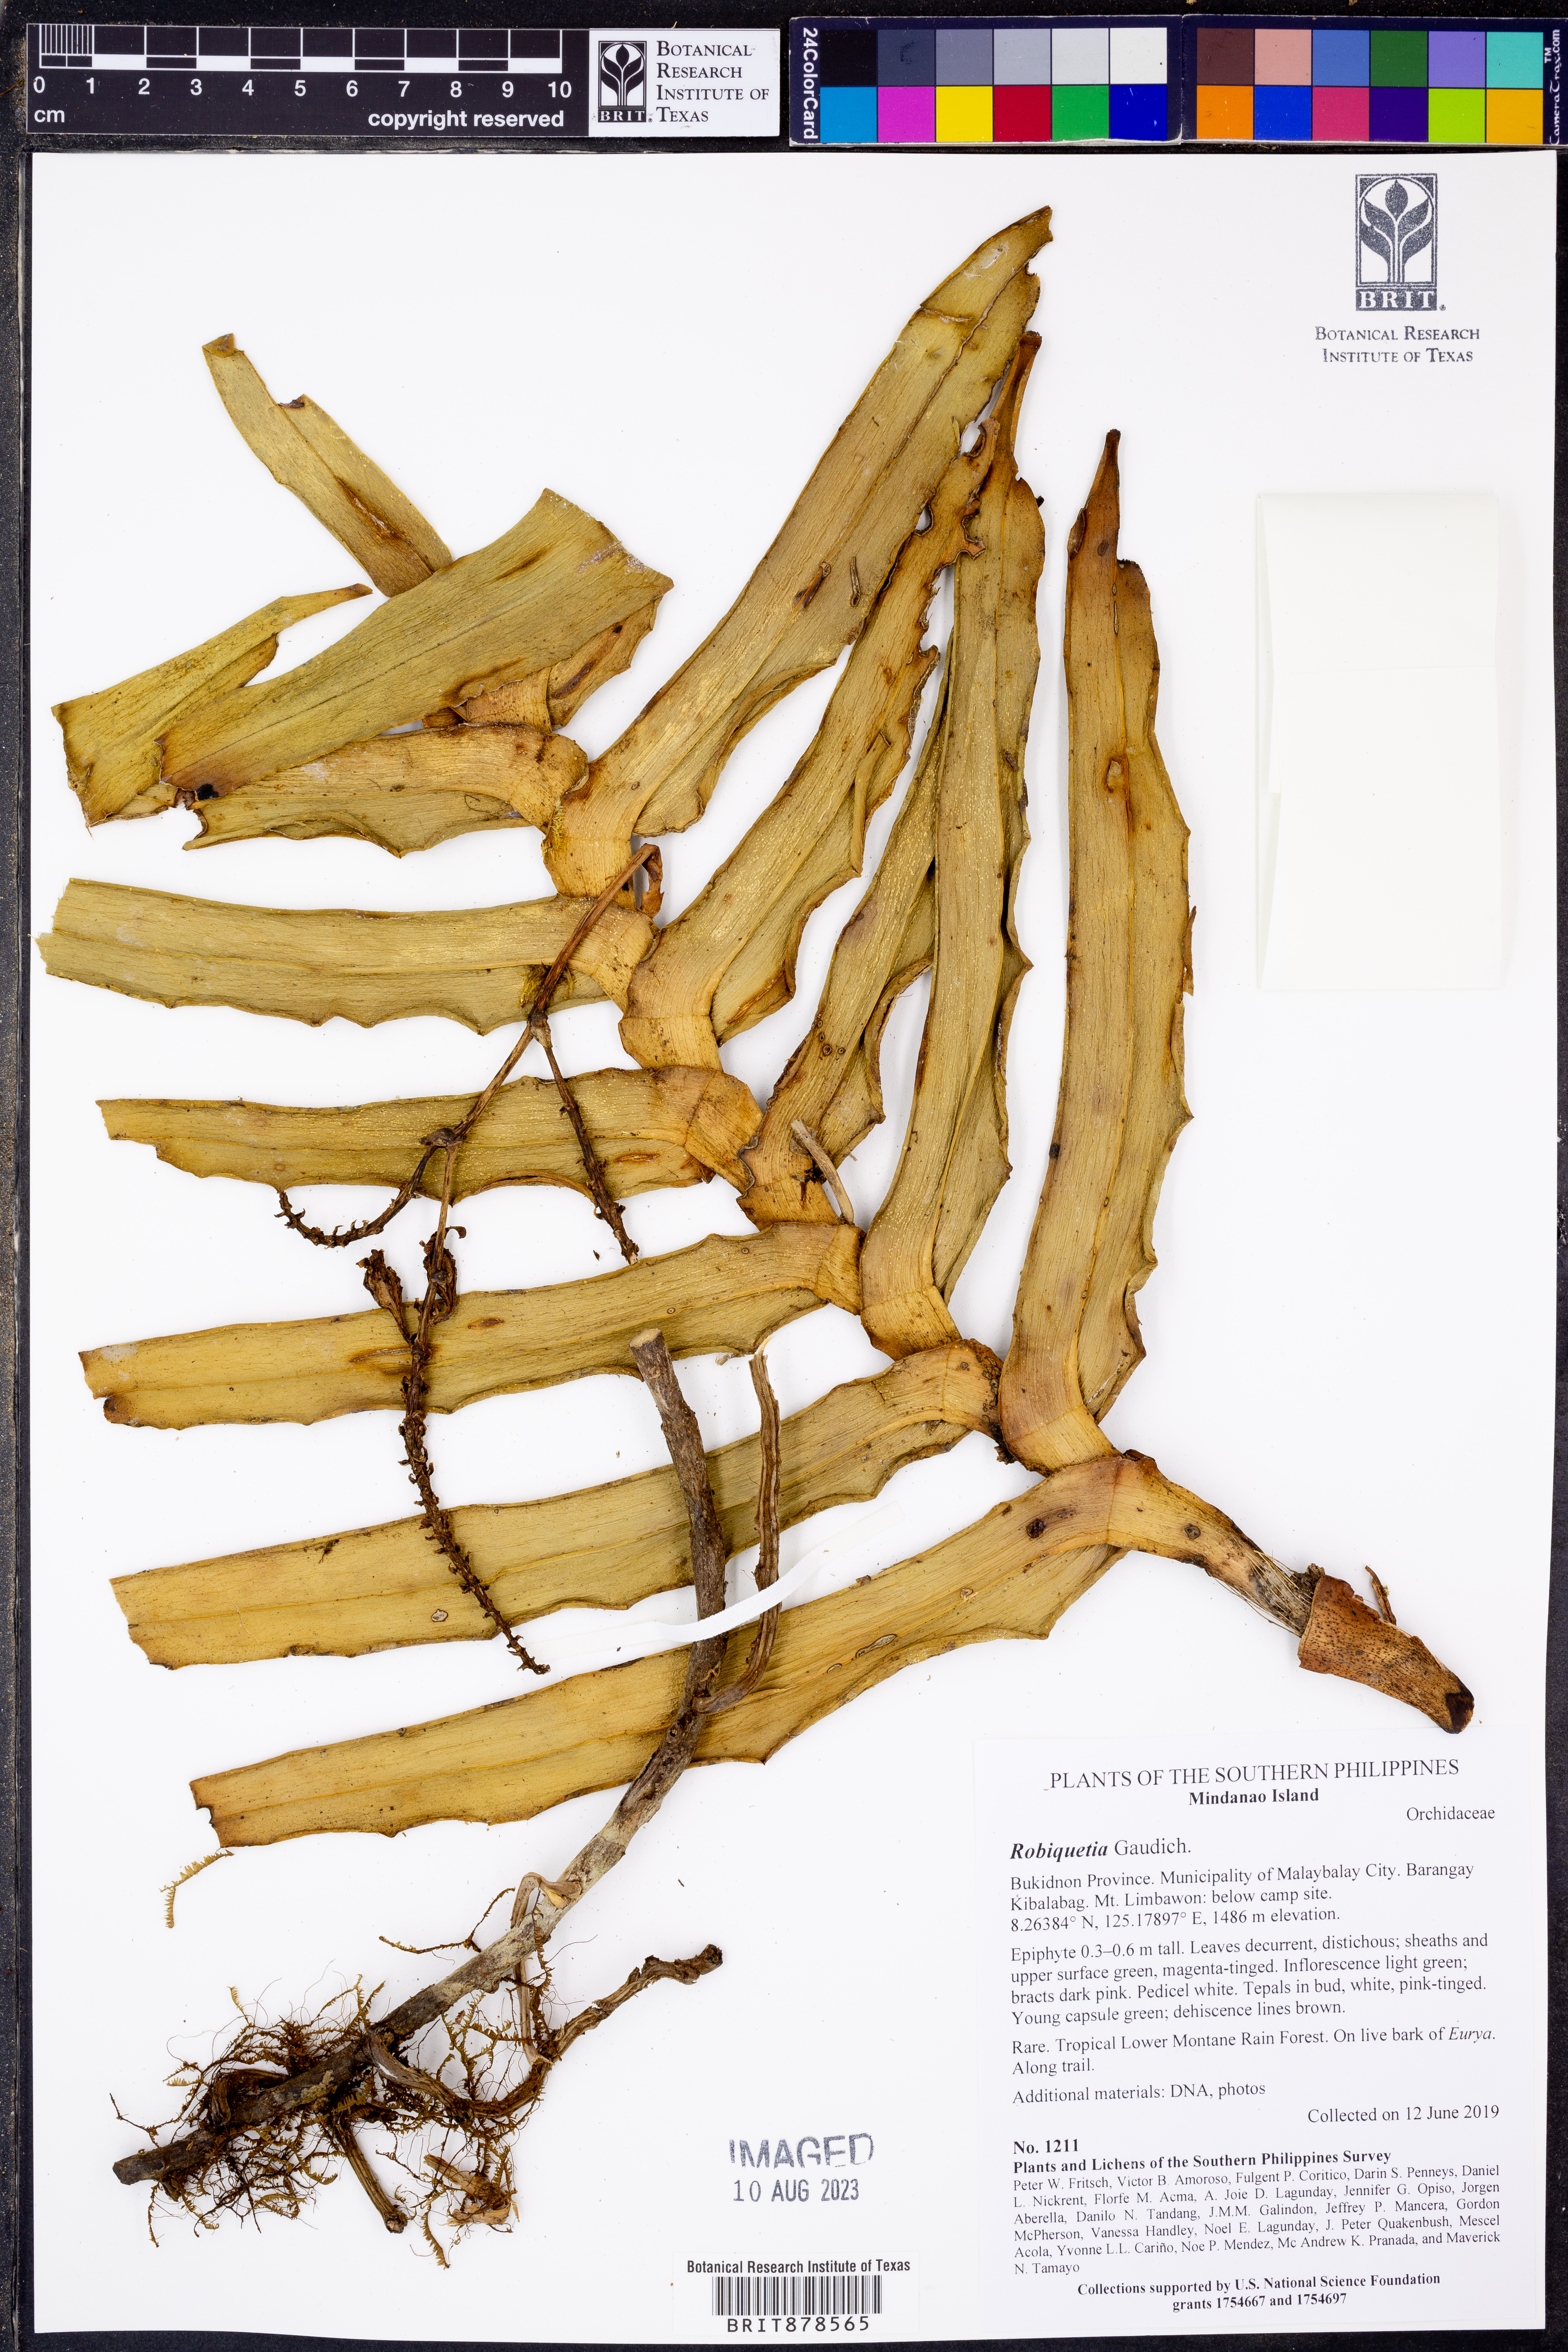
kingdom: Plantae
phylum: Tracheophyta
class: Liliopsida
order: Asparagales
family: Orchidaceae
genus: Robiquetia
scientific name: Robiquetia
